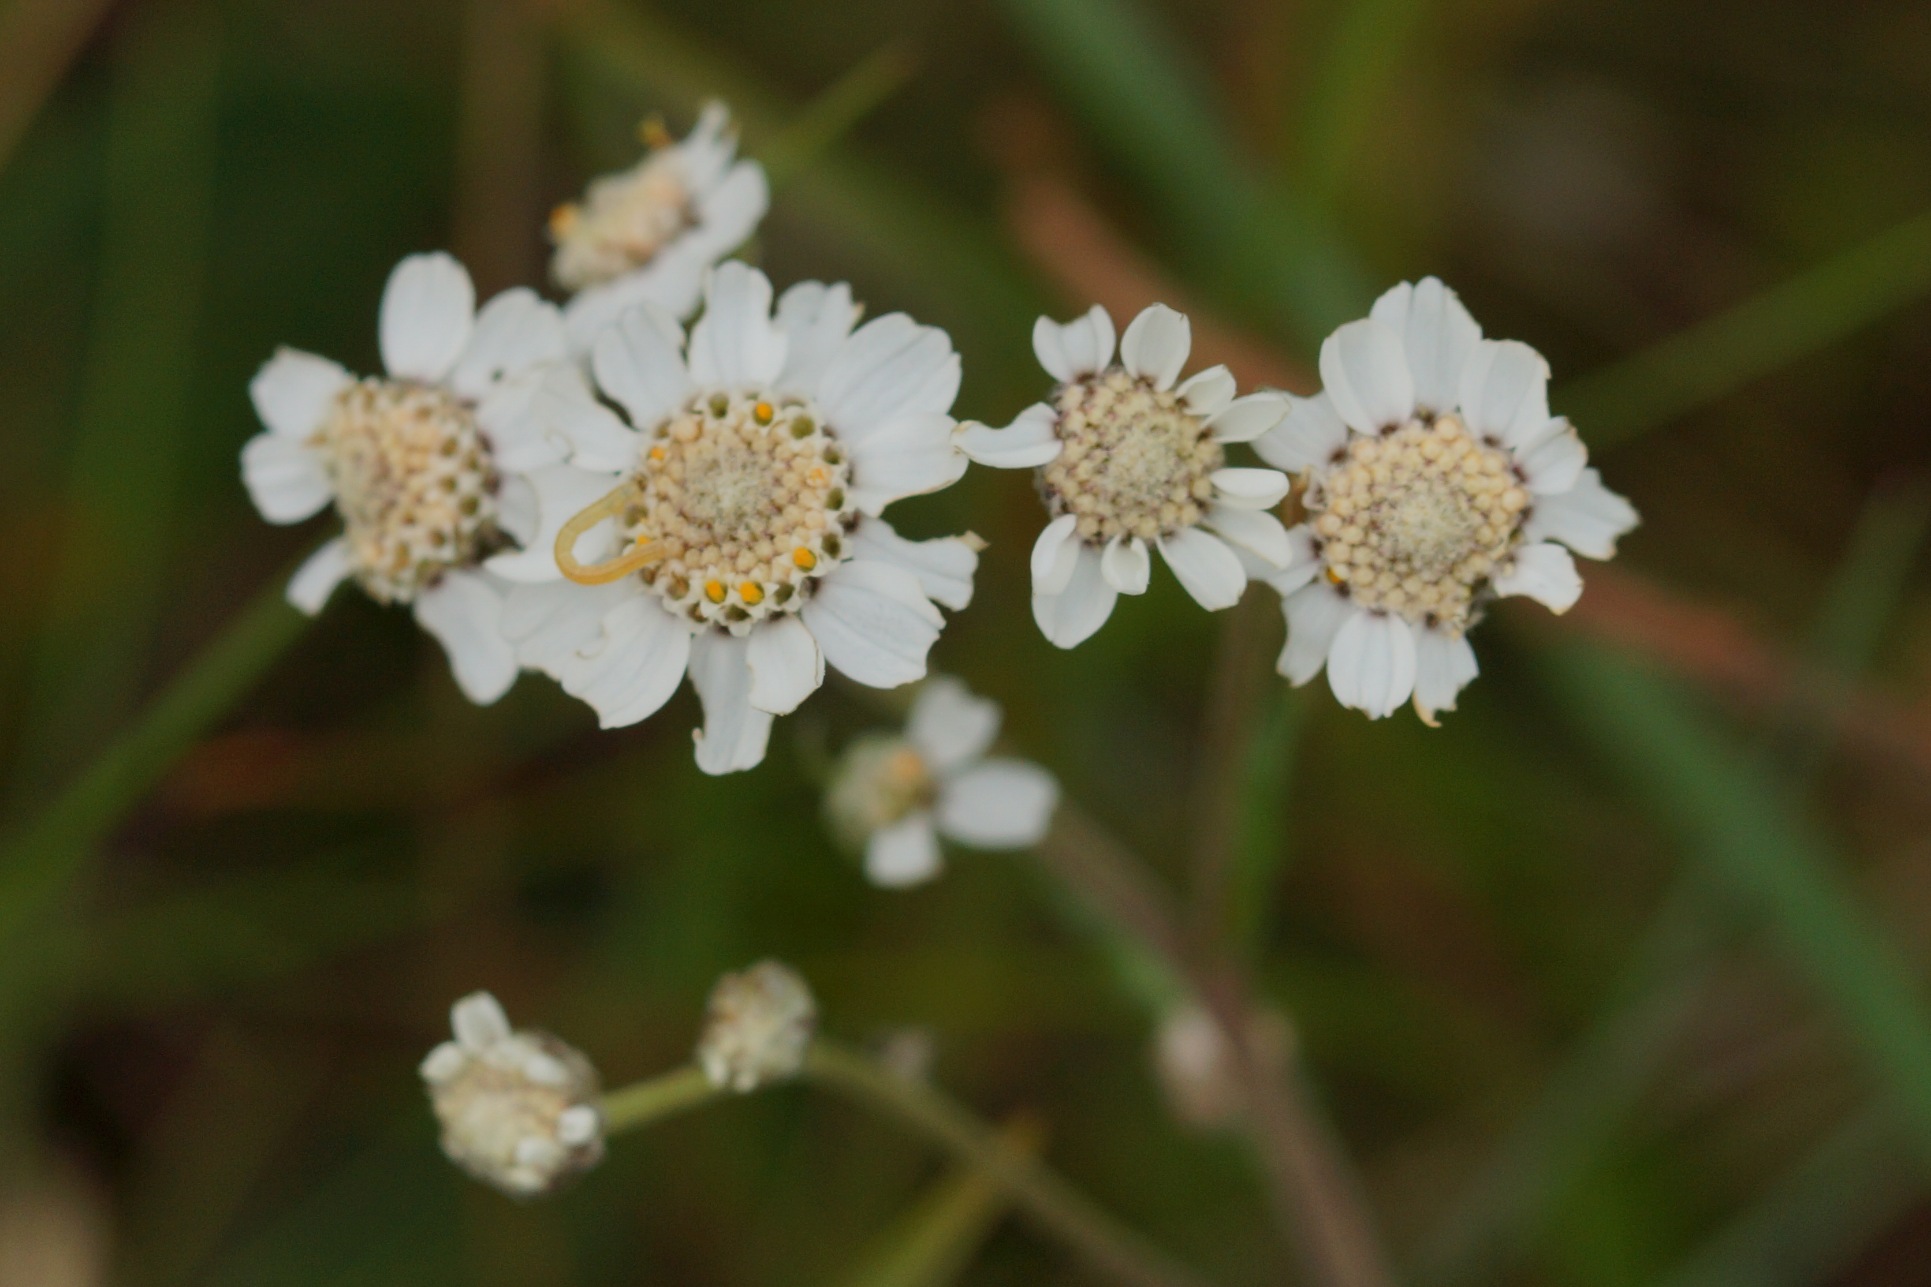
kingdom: Plantae
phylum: Tracheophyta
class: Magnoliopsida
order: Asterales
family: Asteraceae
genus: Achillea
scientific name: Achillea ptarmica
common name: Nyse-røllike
